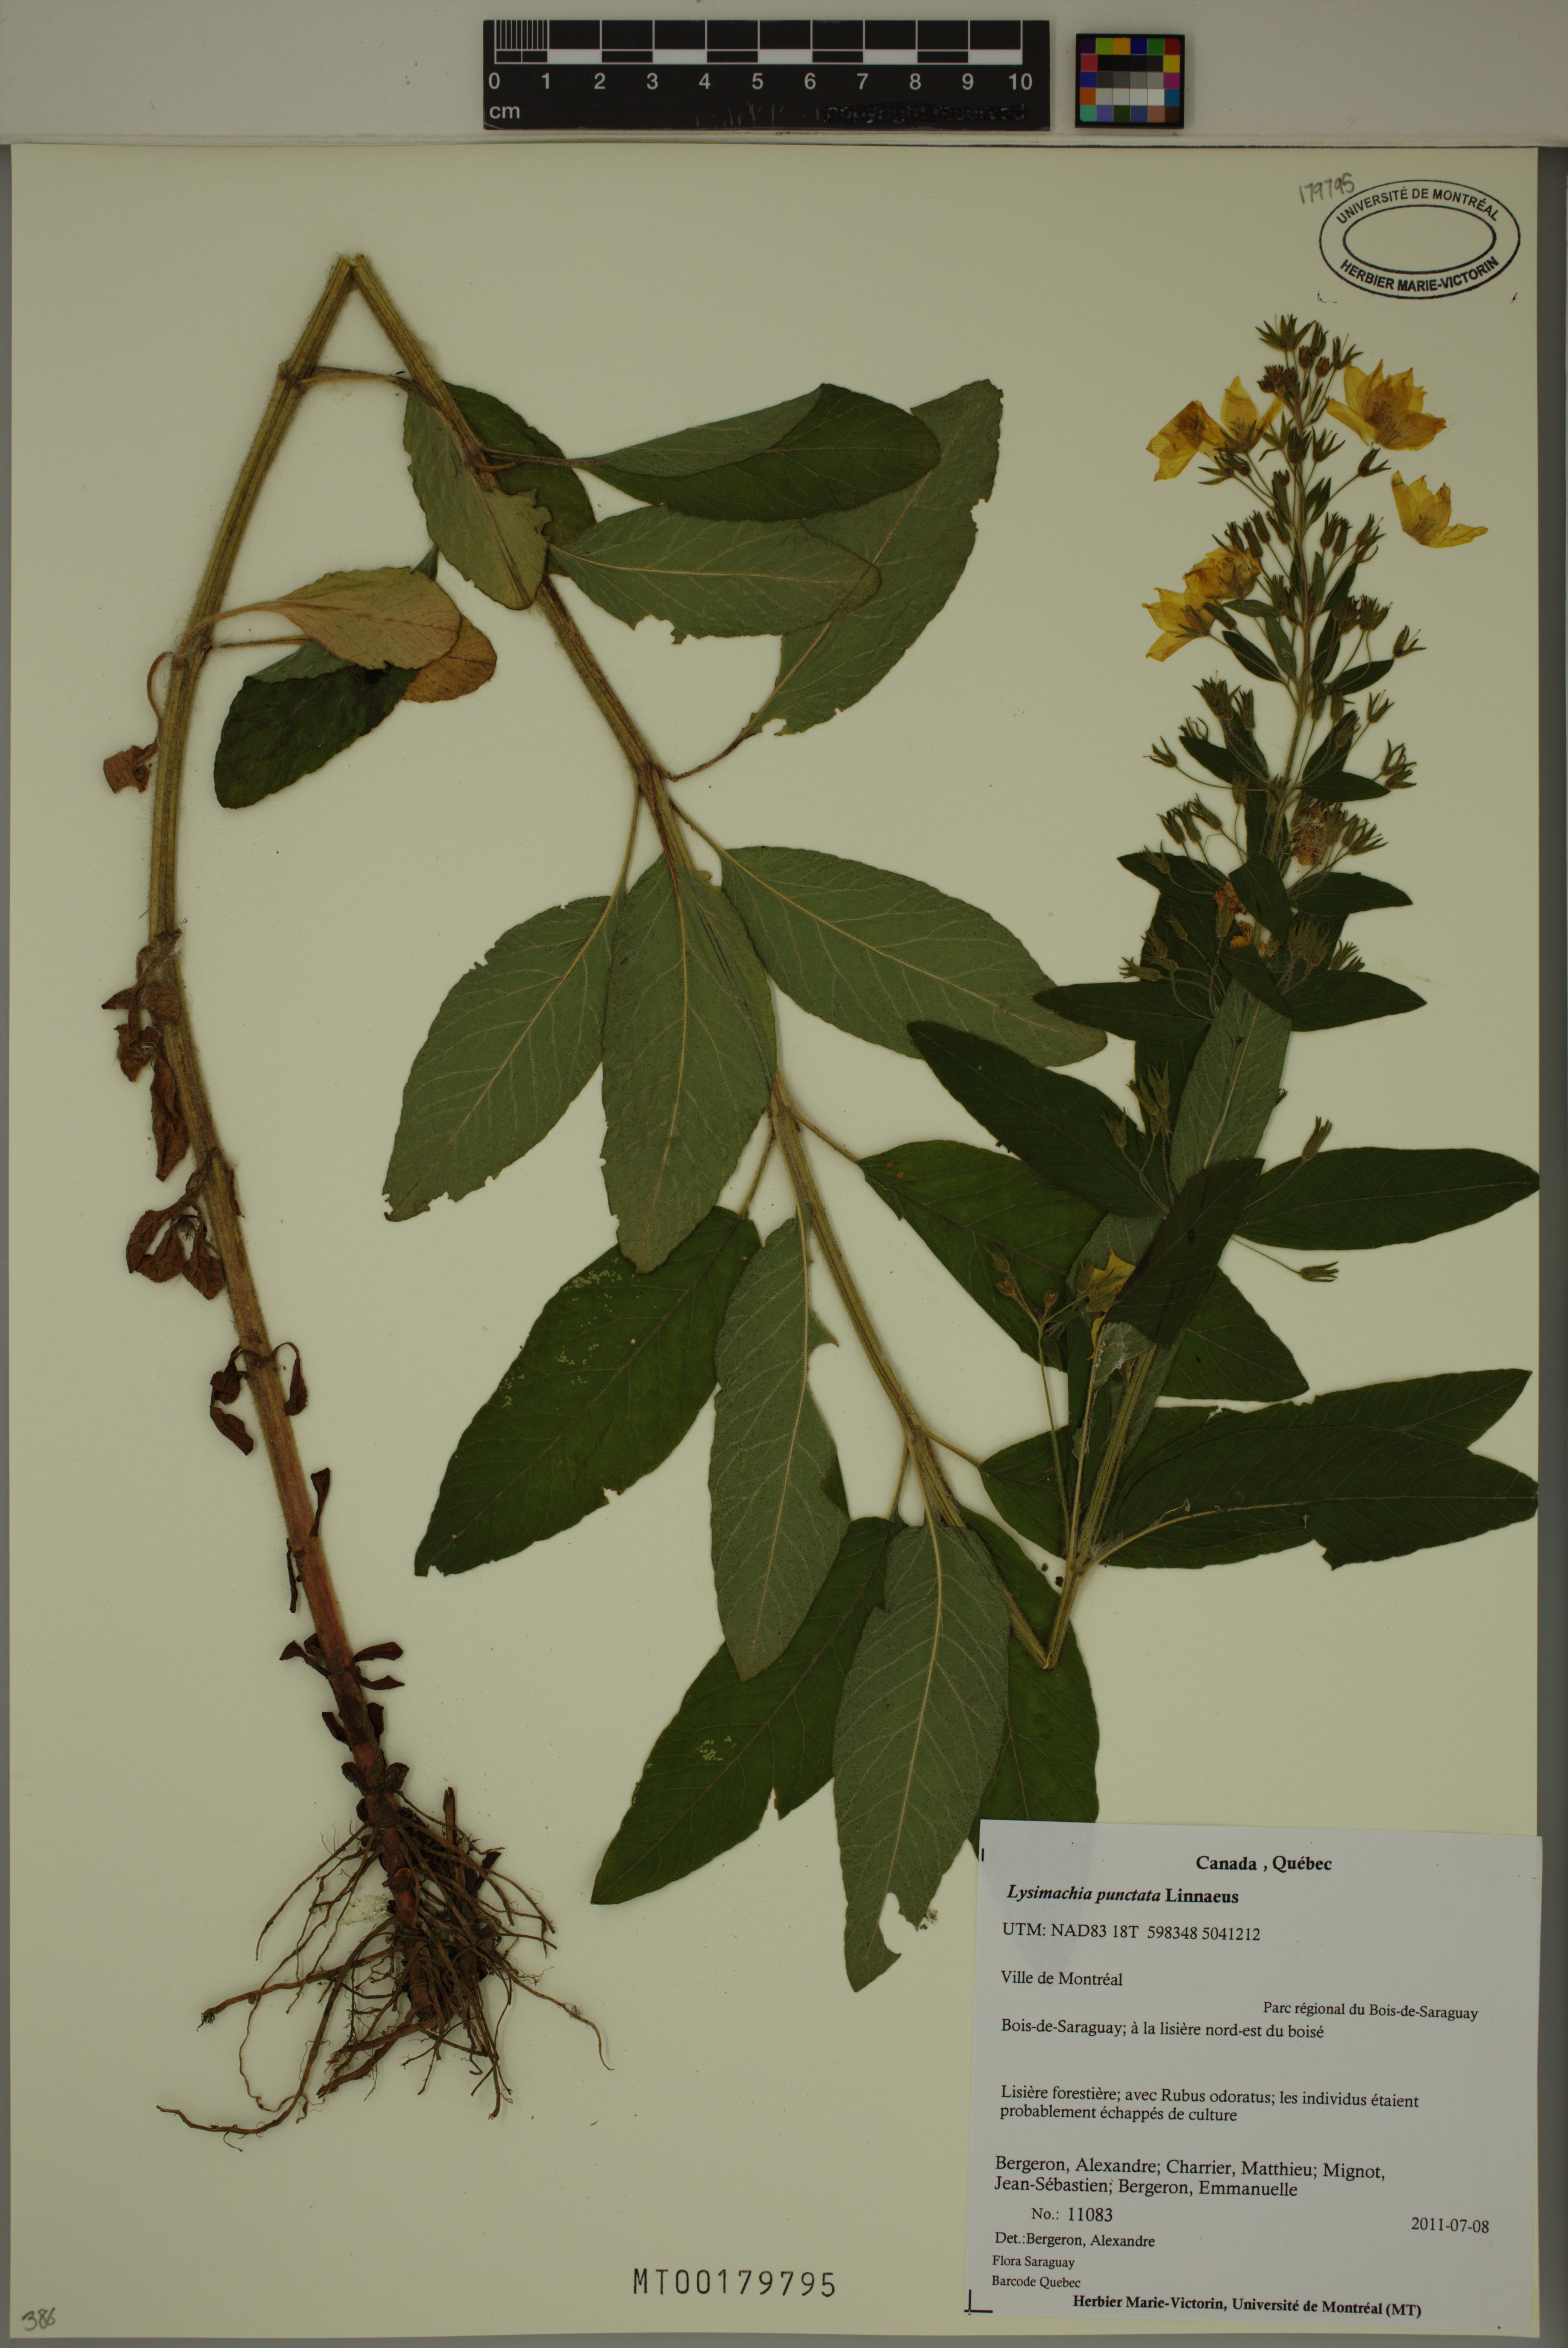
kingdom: Plantae
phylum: Tracheophyta
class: Magnoliopsida
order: Ericales
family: Primulaceae
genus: Lysimachia
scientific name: Lysimachia punctata
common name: Dotted loosestrife
